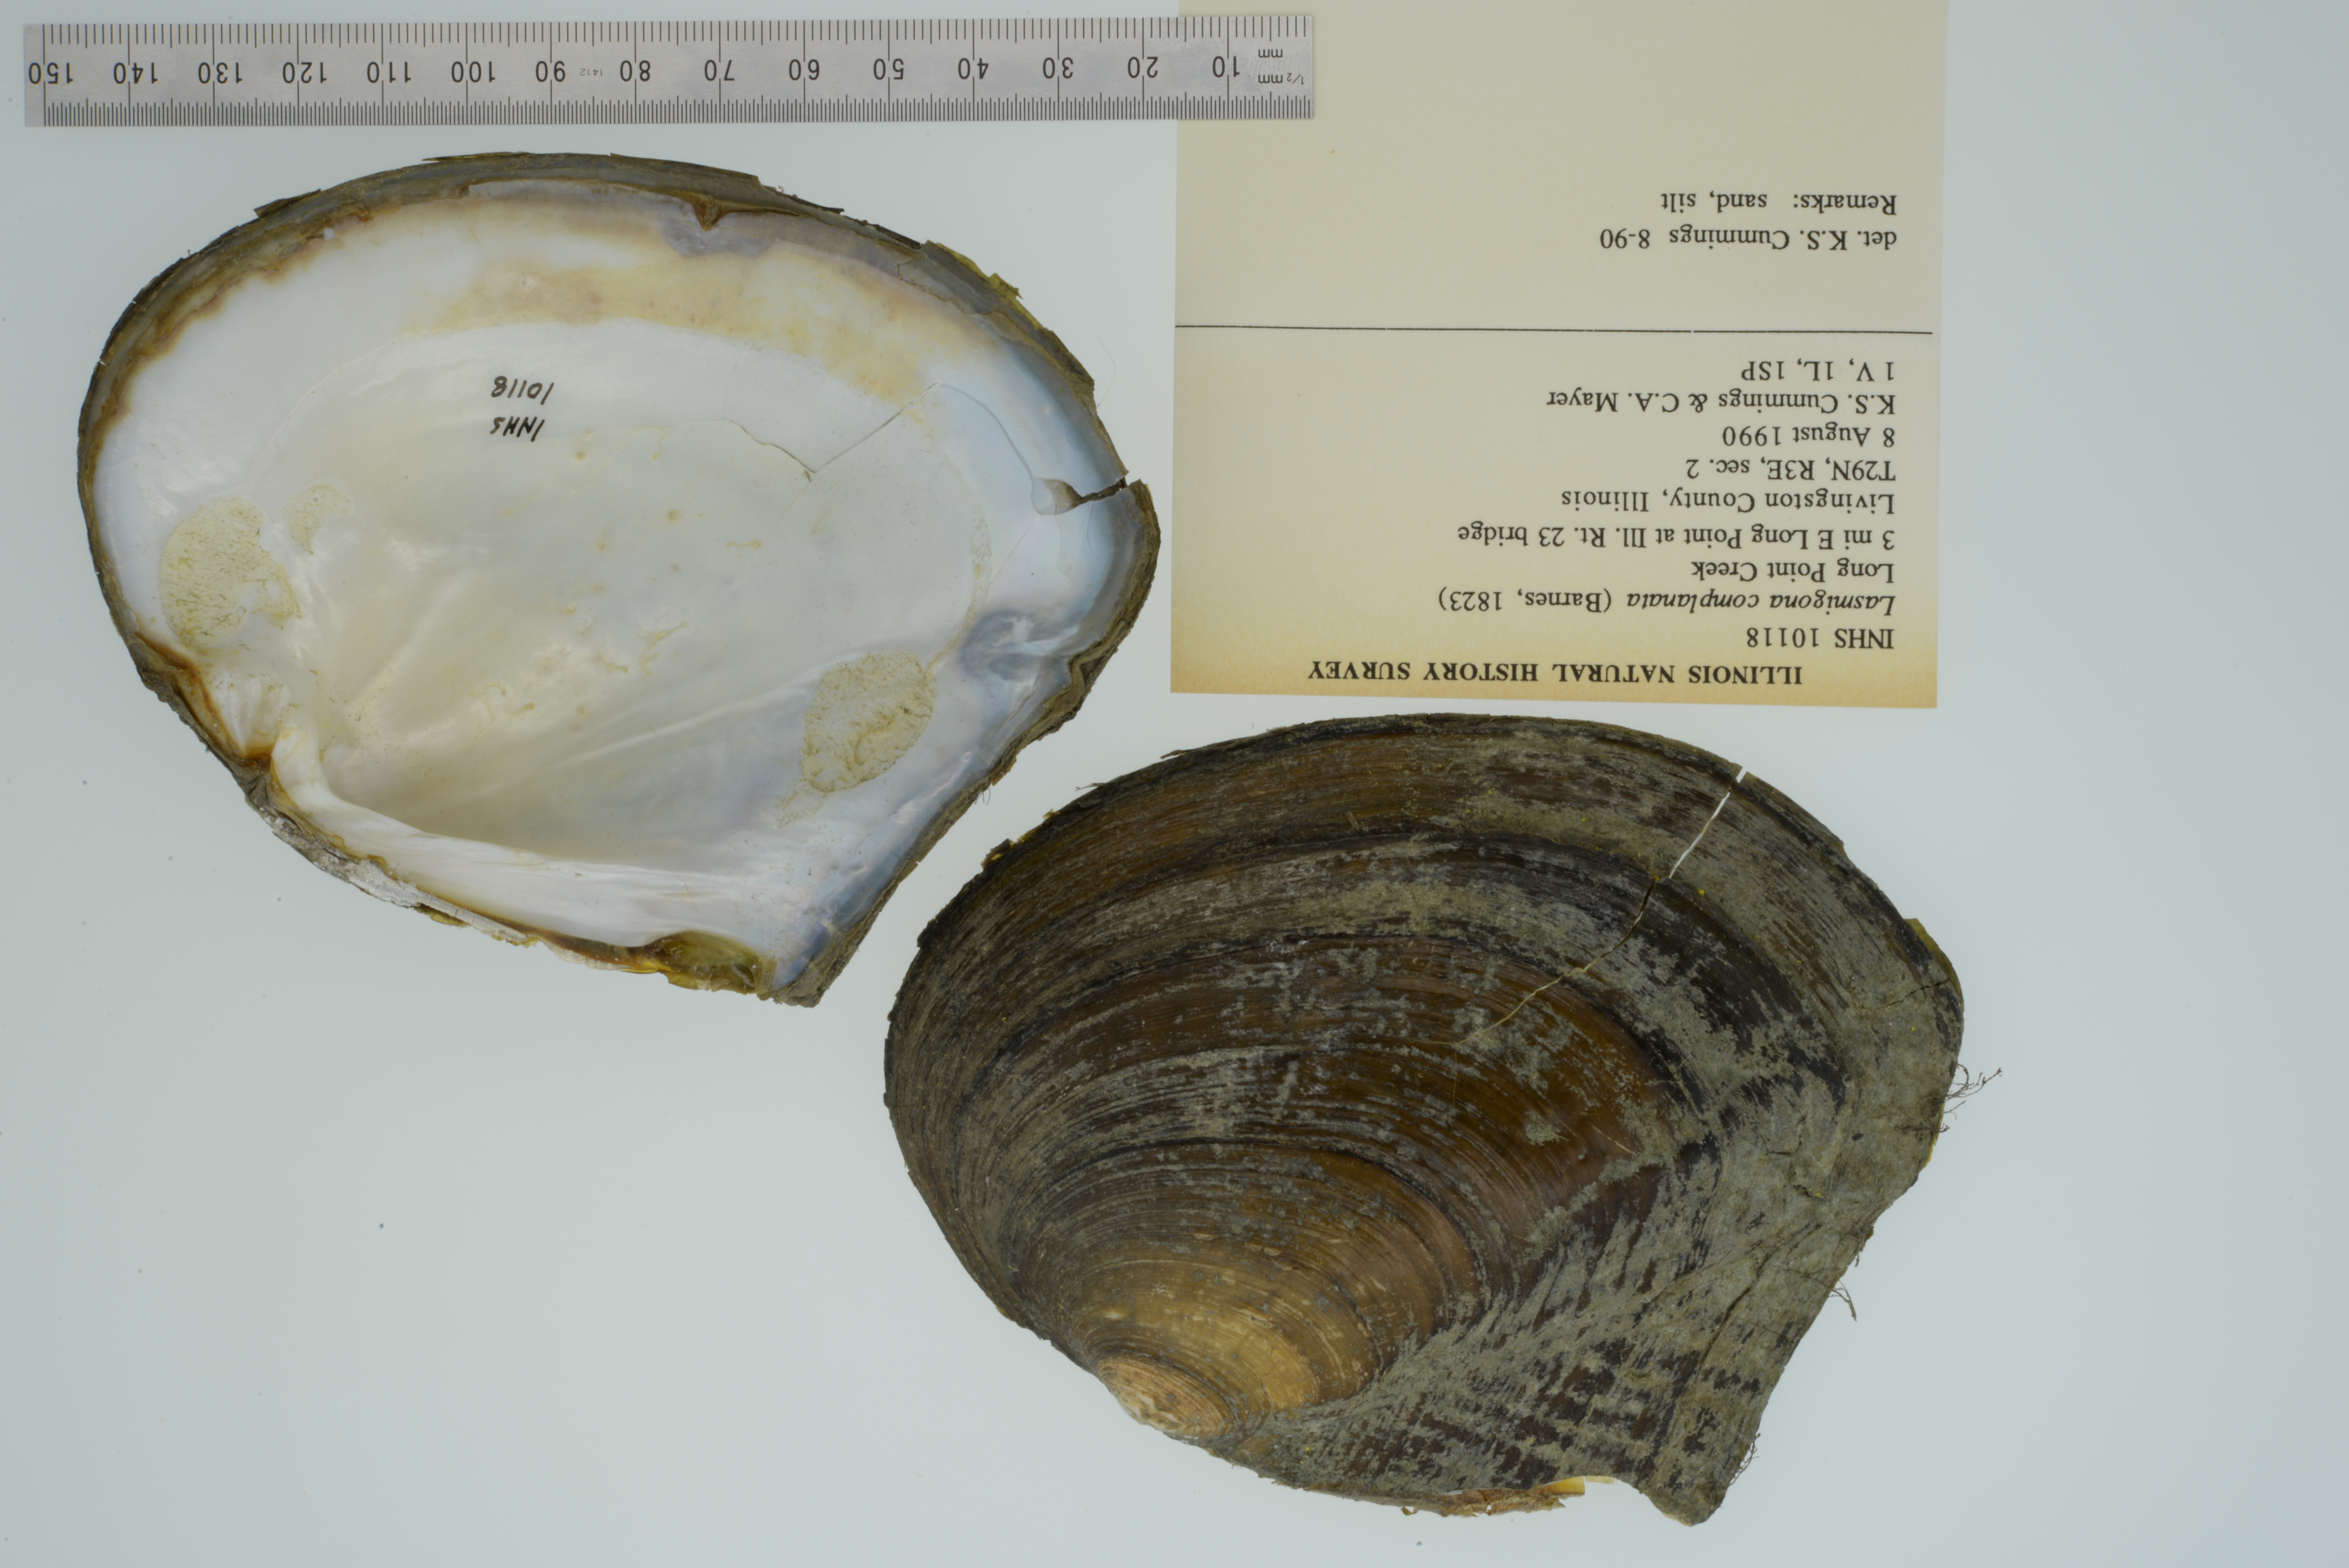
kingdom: Animalia
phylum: Mollusca
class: Bivalvia
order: Unionida
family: Unionidae
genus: Lasmigona
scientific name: Lasmigona complanata
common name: White heelsplitter
